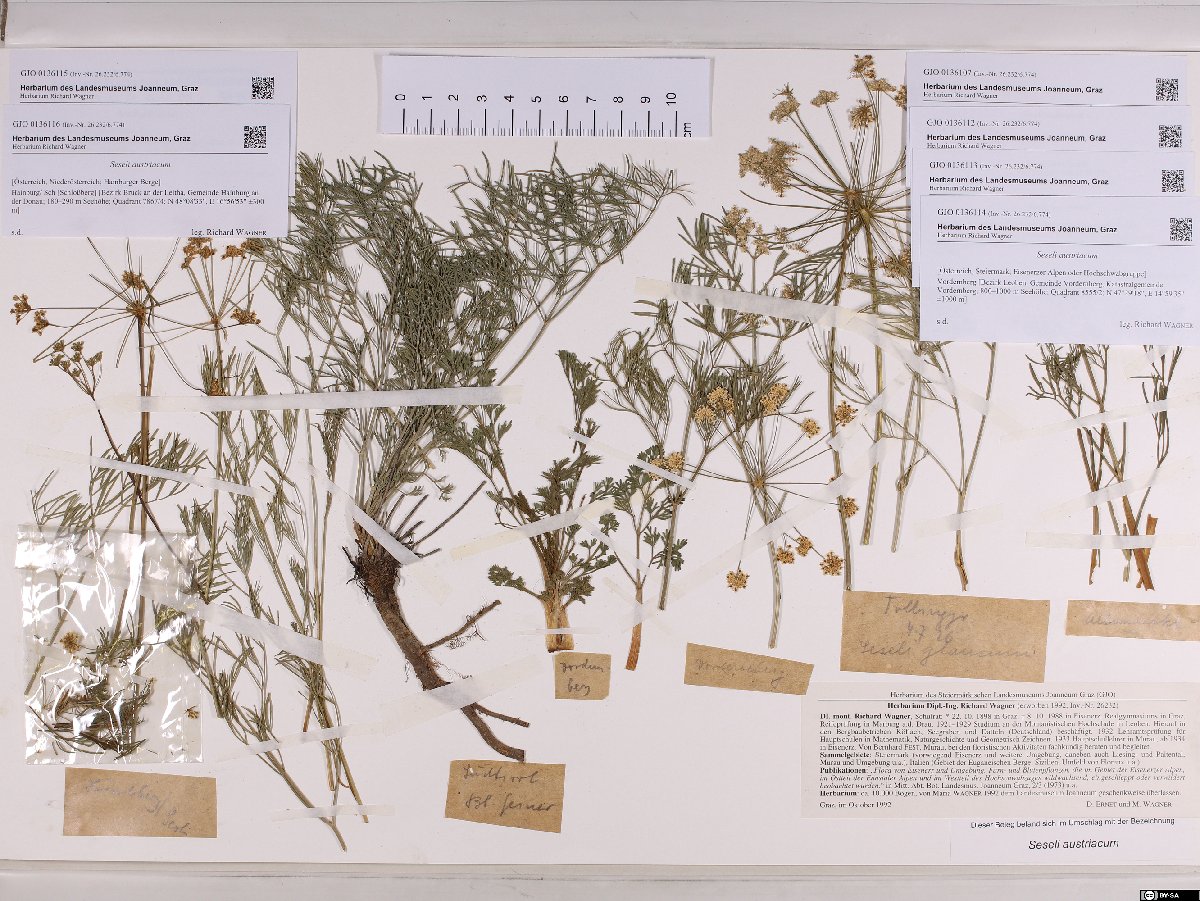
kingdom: Plantae
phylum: Tracheophyta
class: Magnoliopsida
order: Apiales
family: Apiaceae
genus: Seseli
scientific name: Seseli austriacum
